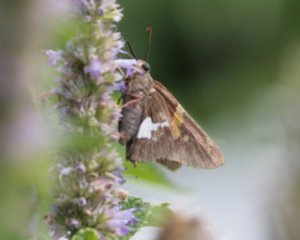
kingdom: Animalia
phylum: Arthropoda
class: Insecta
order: Lepidoptera
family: Hesperiidae
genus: Epargyreus
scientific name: Epargyreus clarus
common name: Silver-spotted Skipper
